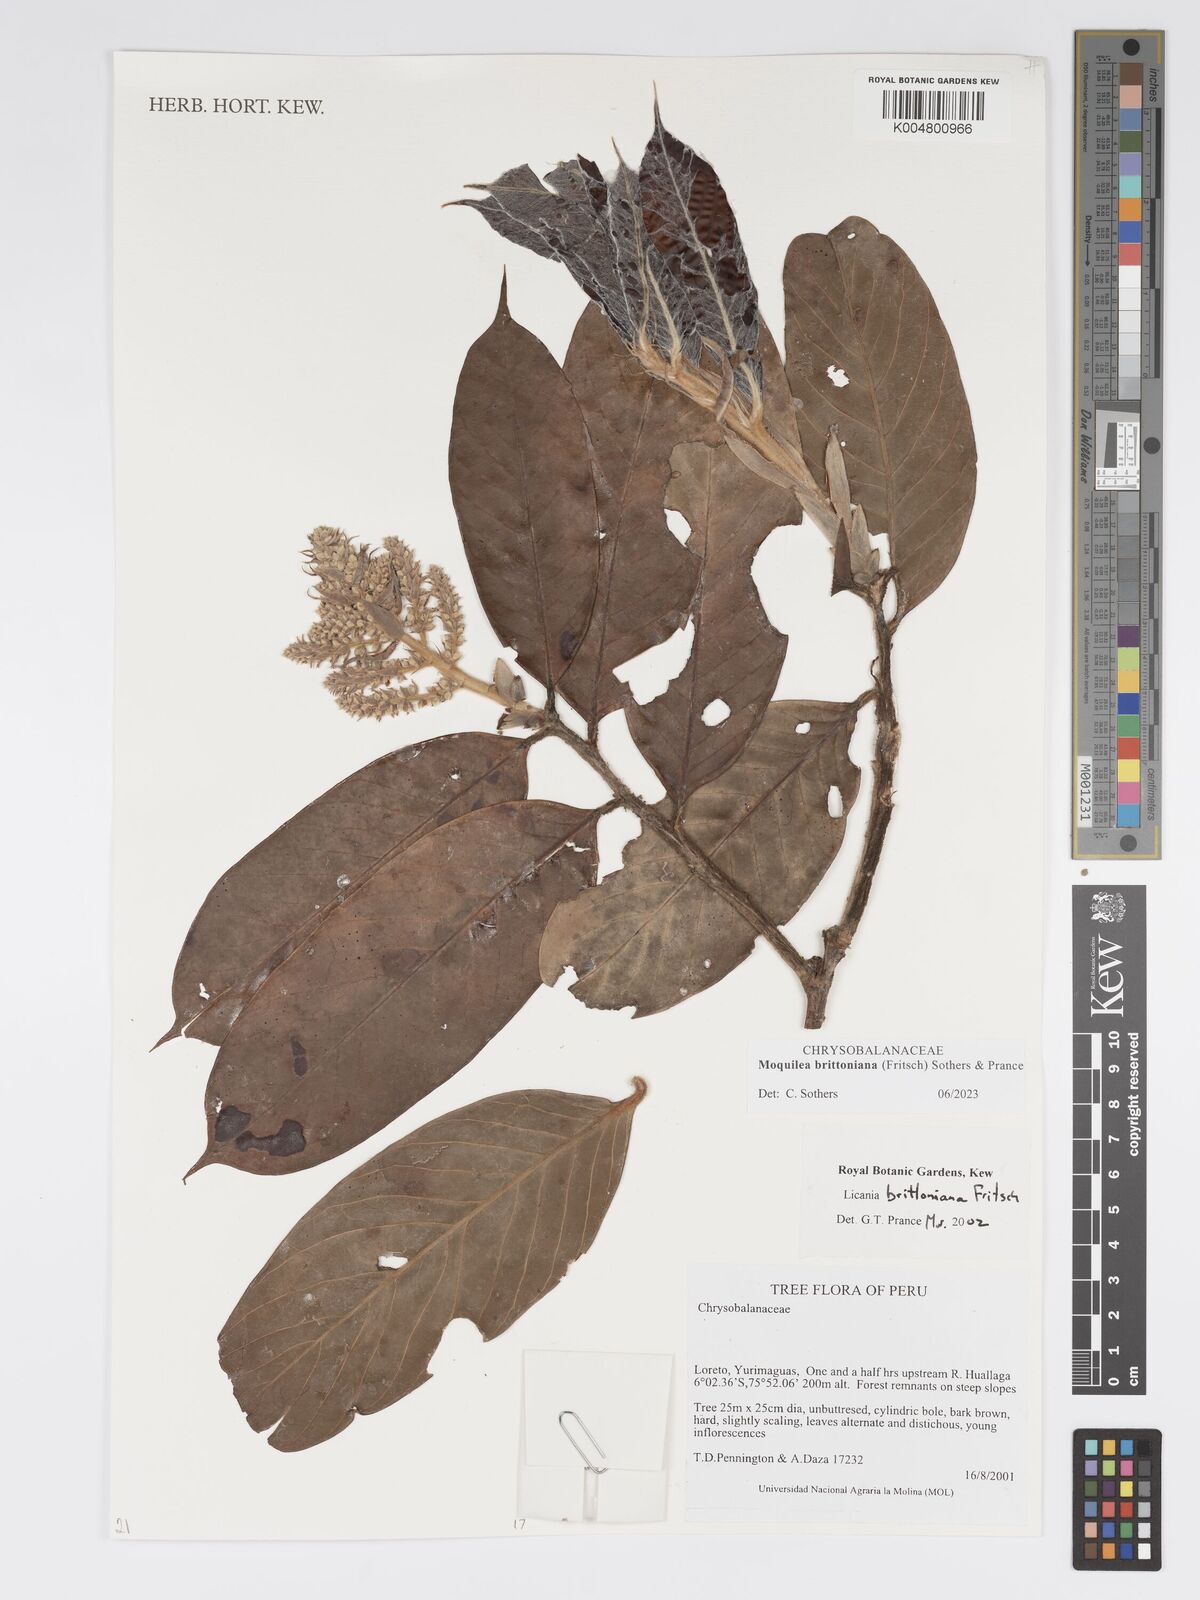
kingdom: Plantae
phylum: Tracheophyta
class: Magnoliopsida
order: Malpighiales
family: Chrysobalanaceae
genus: Moquilea
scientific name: Moquilea brittoniana
